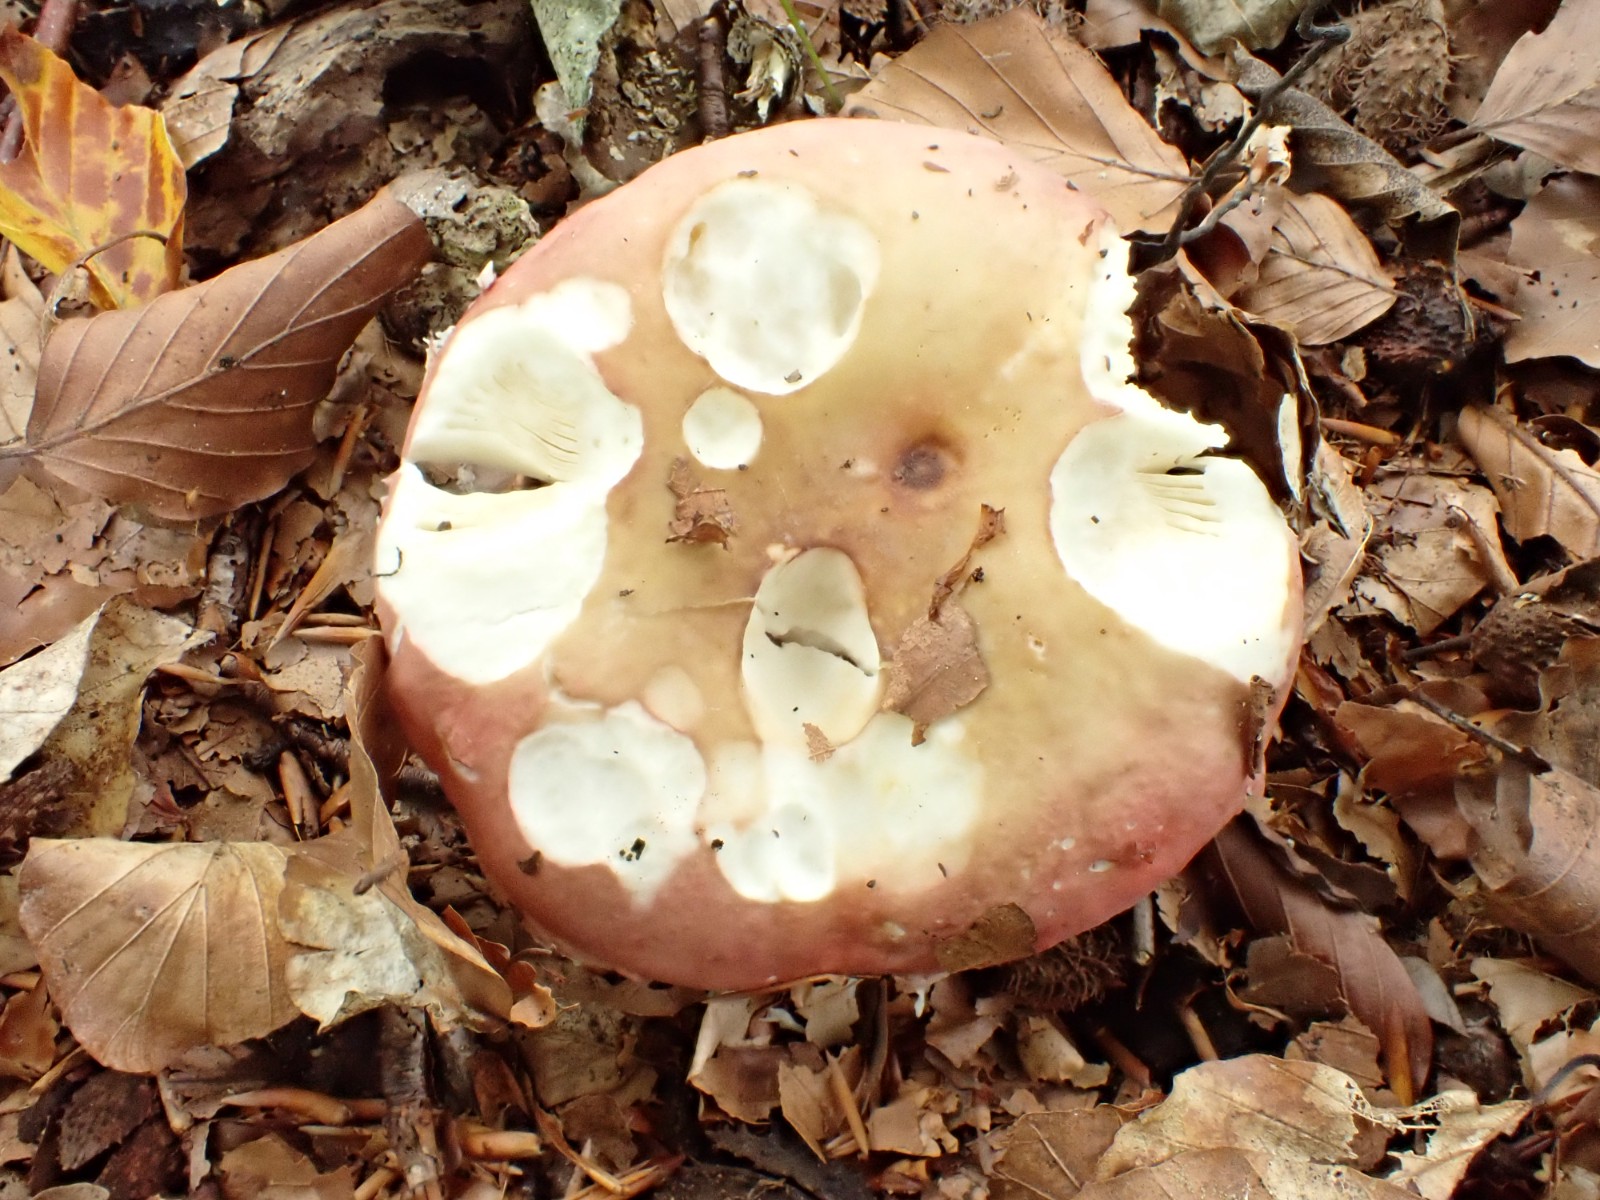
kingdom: Fungi
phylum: Basidiomycota
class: Agaricomycetes
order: Russulales
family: Russulaceae
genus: Russula
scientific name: Russula curtipes
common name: kortstokket skørhat
